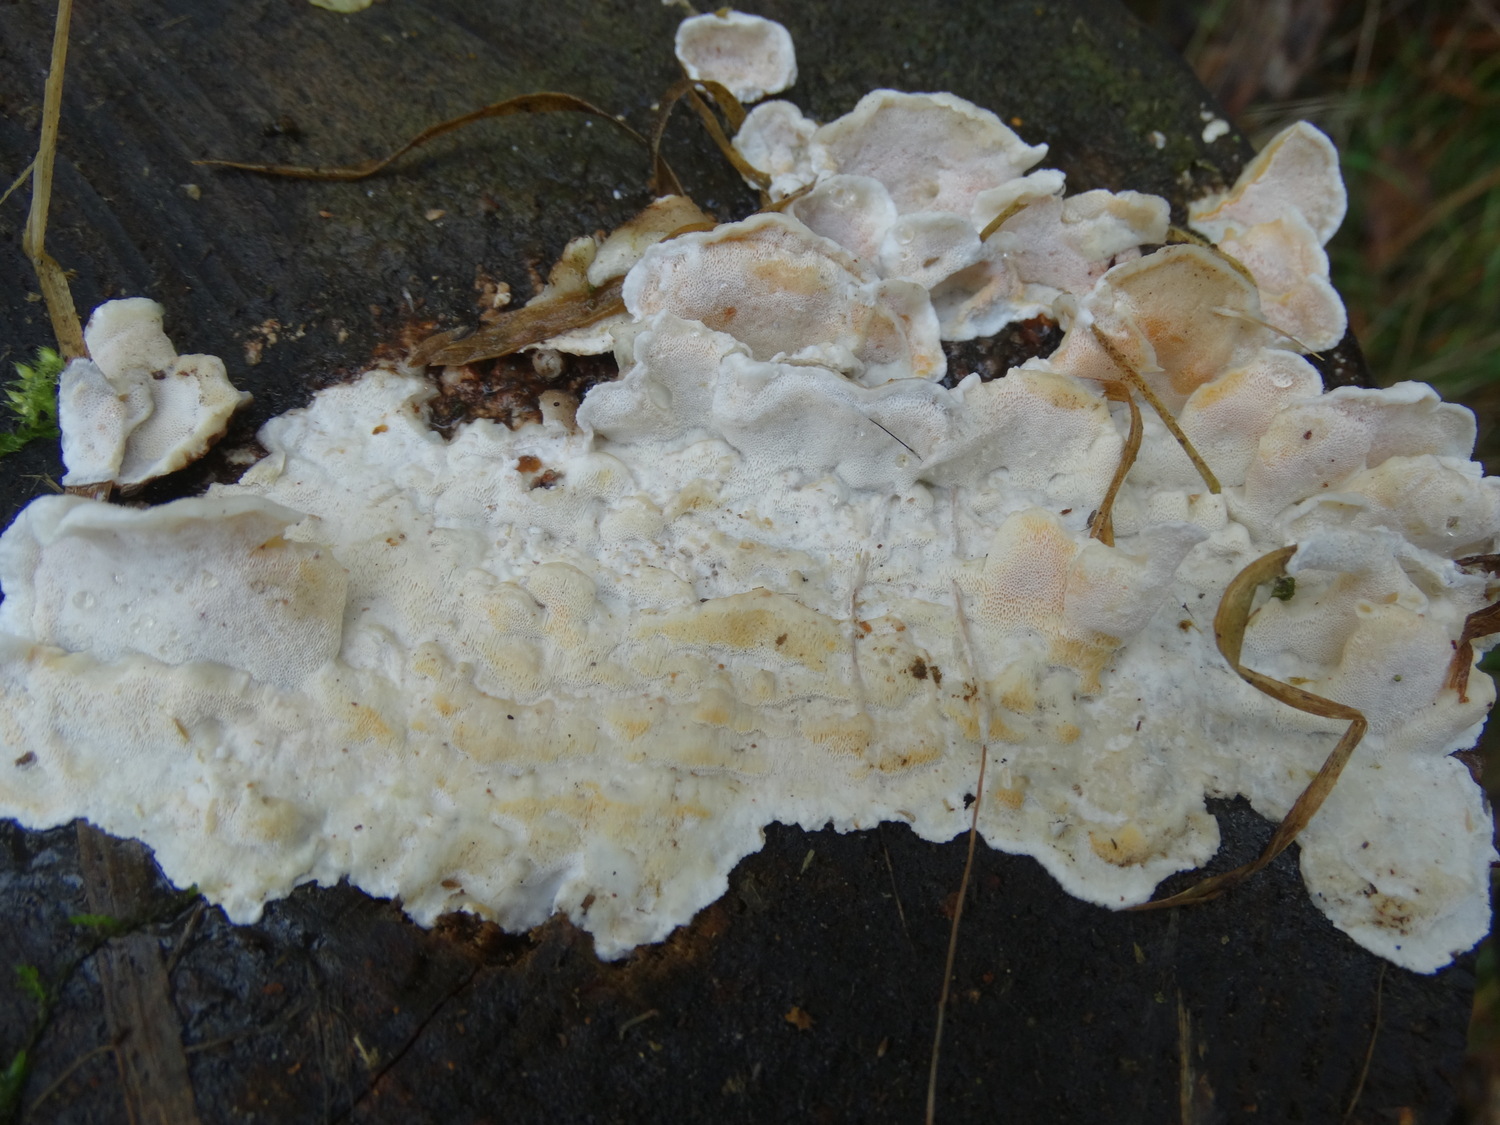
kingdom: Fungi
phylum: Basidiomycota
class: Agaricomycetes
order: Polyporales
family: Incrustoporiaceae
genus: Skeletocutis
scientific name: Skeletocutis amorpha
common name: orange krystalporesvamp
